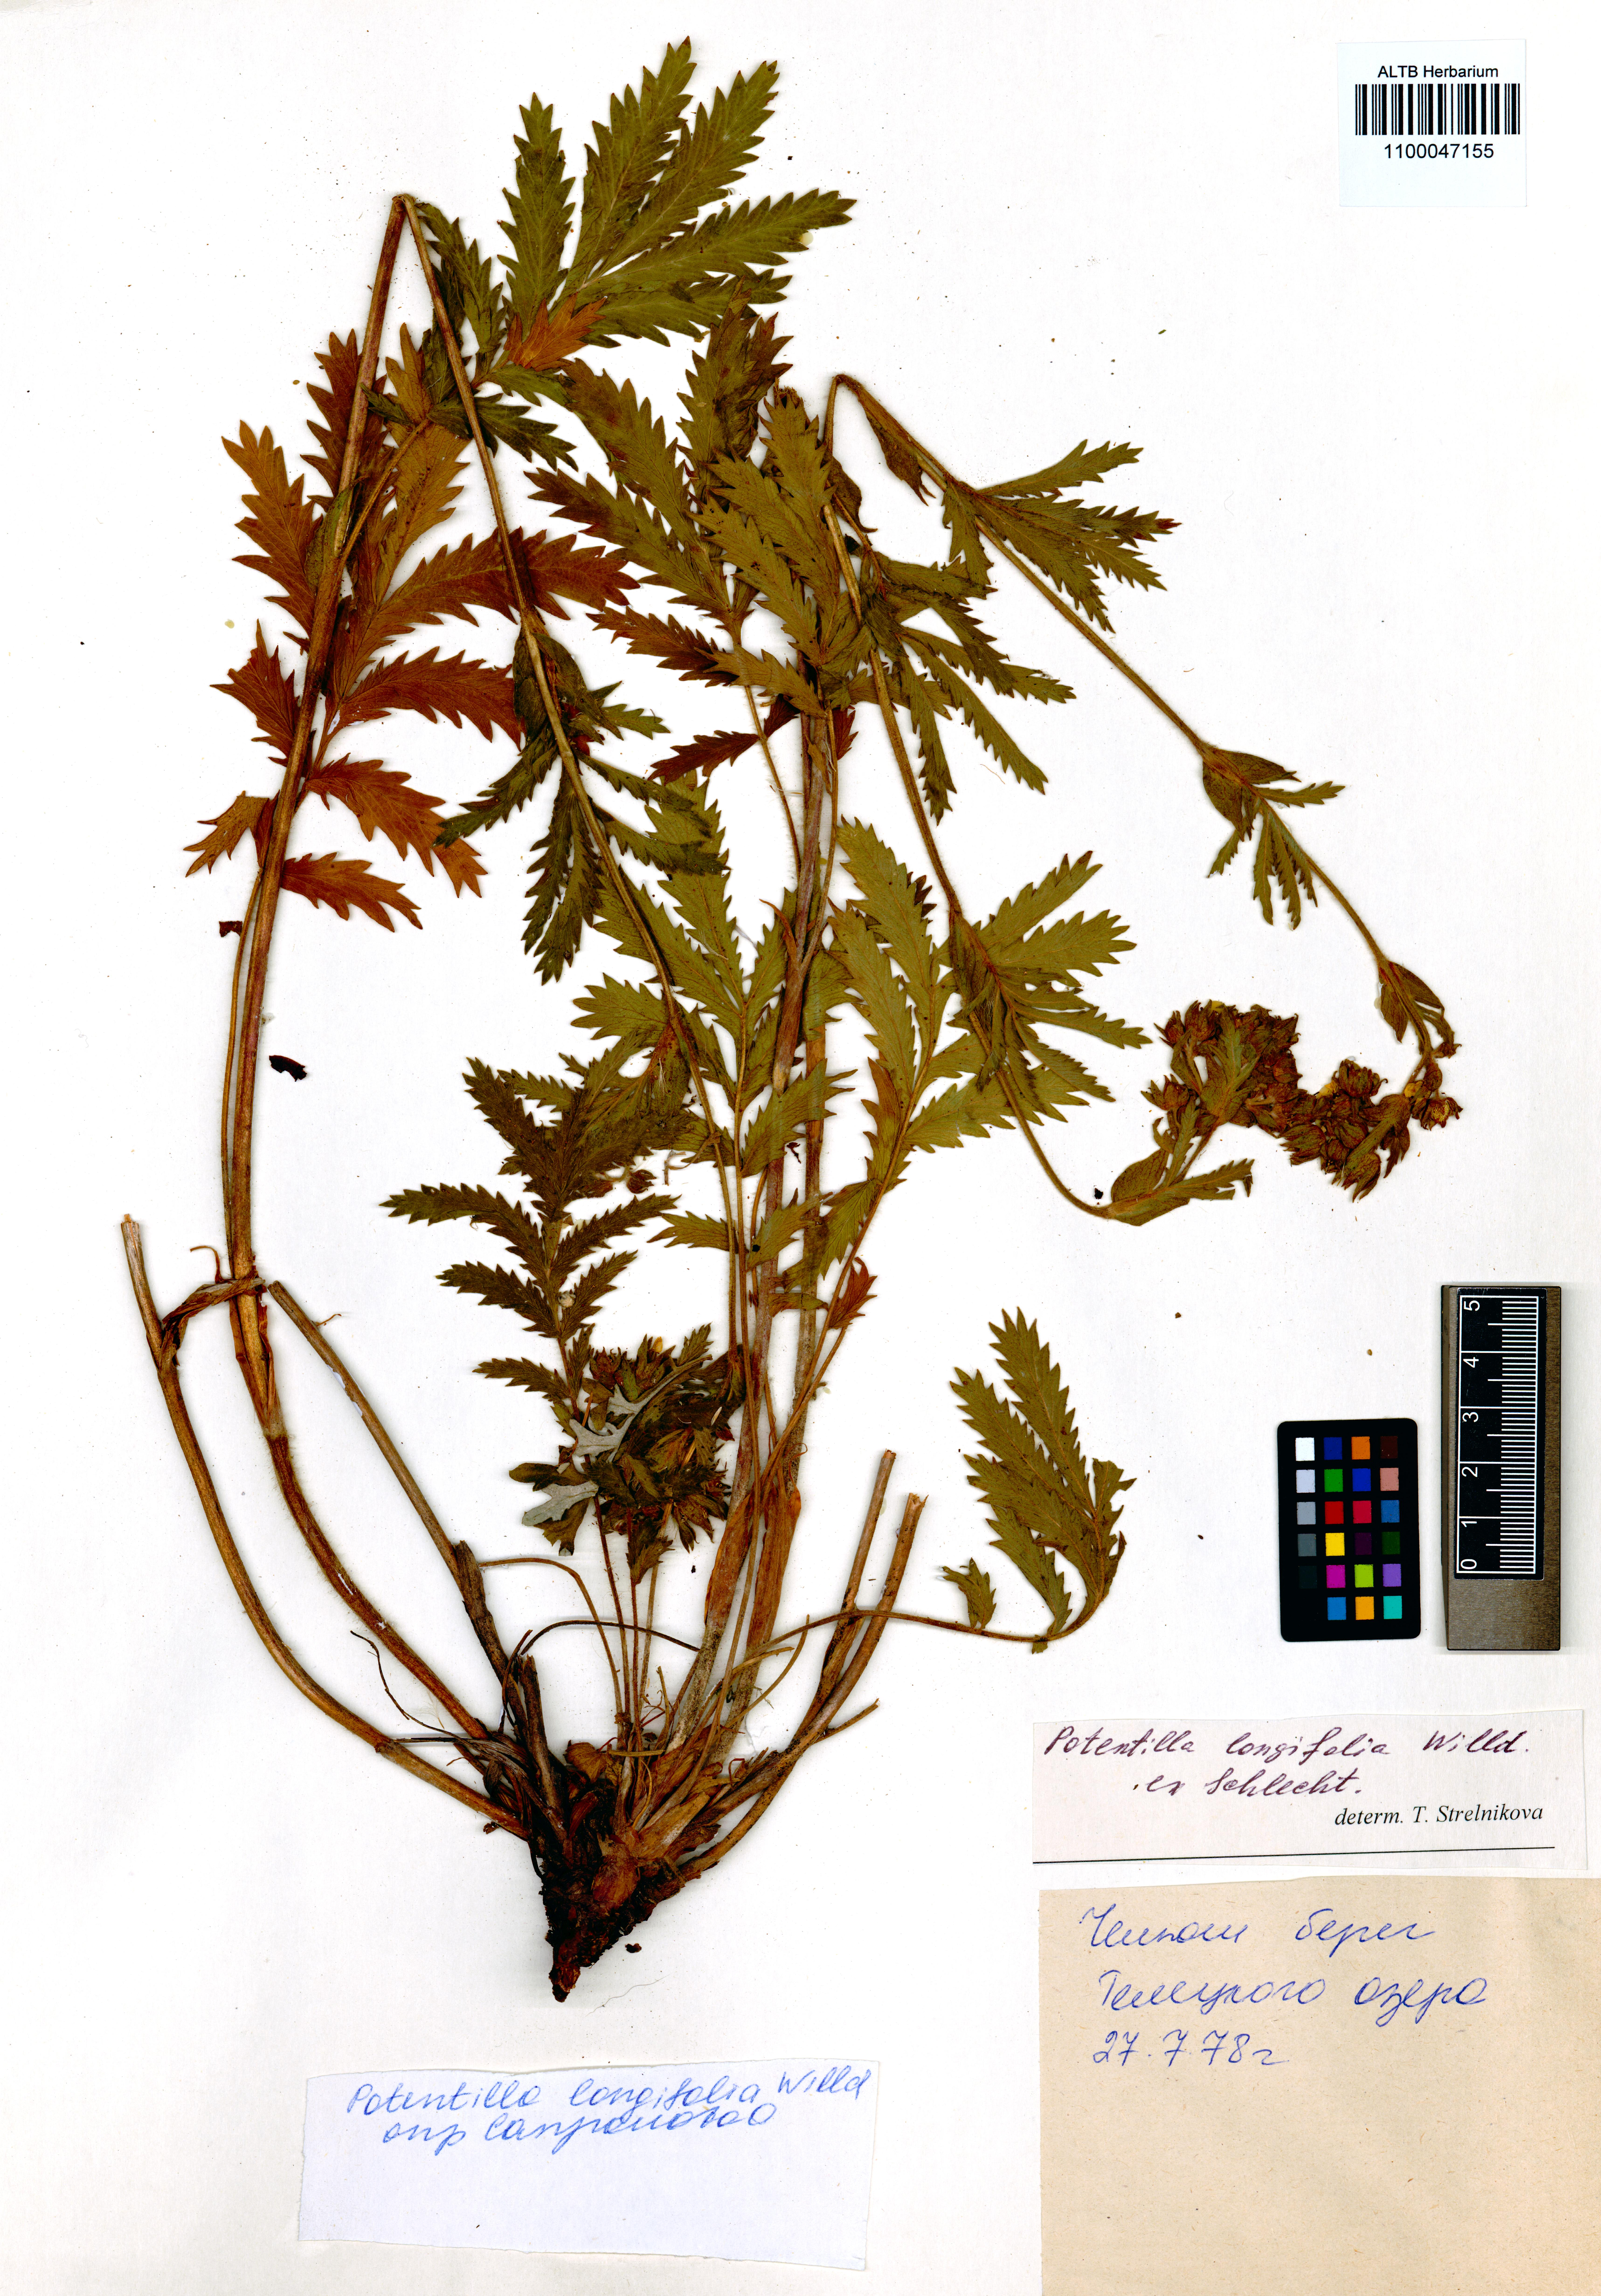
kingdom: Plantae
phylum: Tracheophyta
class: Magnoliopsida
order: Rosales
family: Rosaceae
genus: Potentilla
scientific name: Potentilla longifolia
